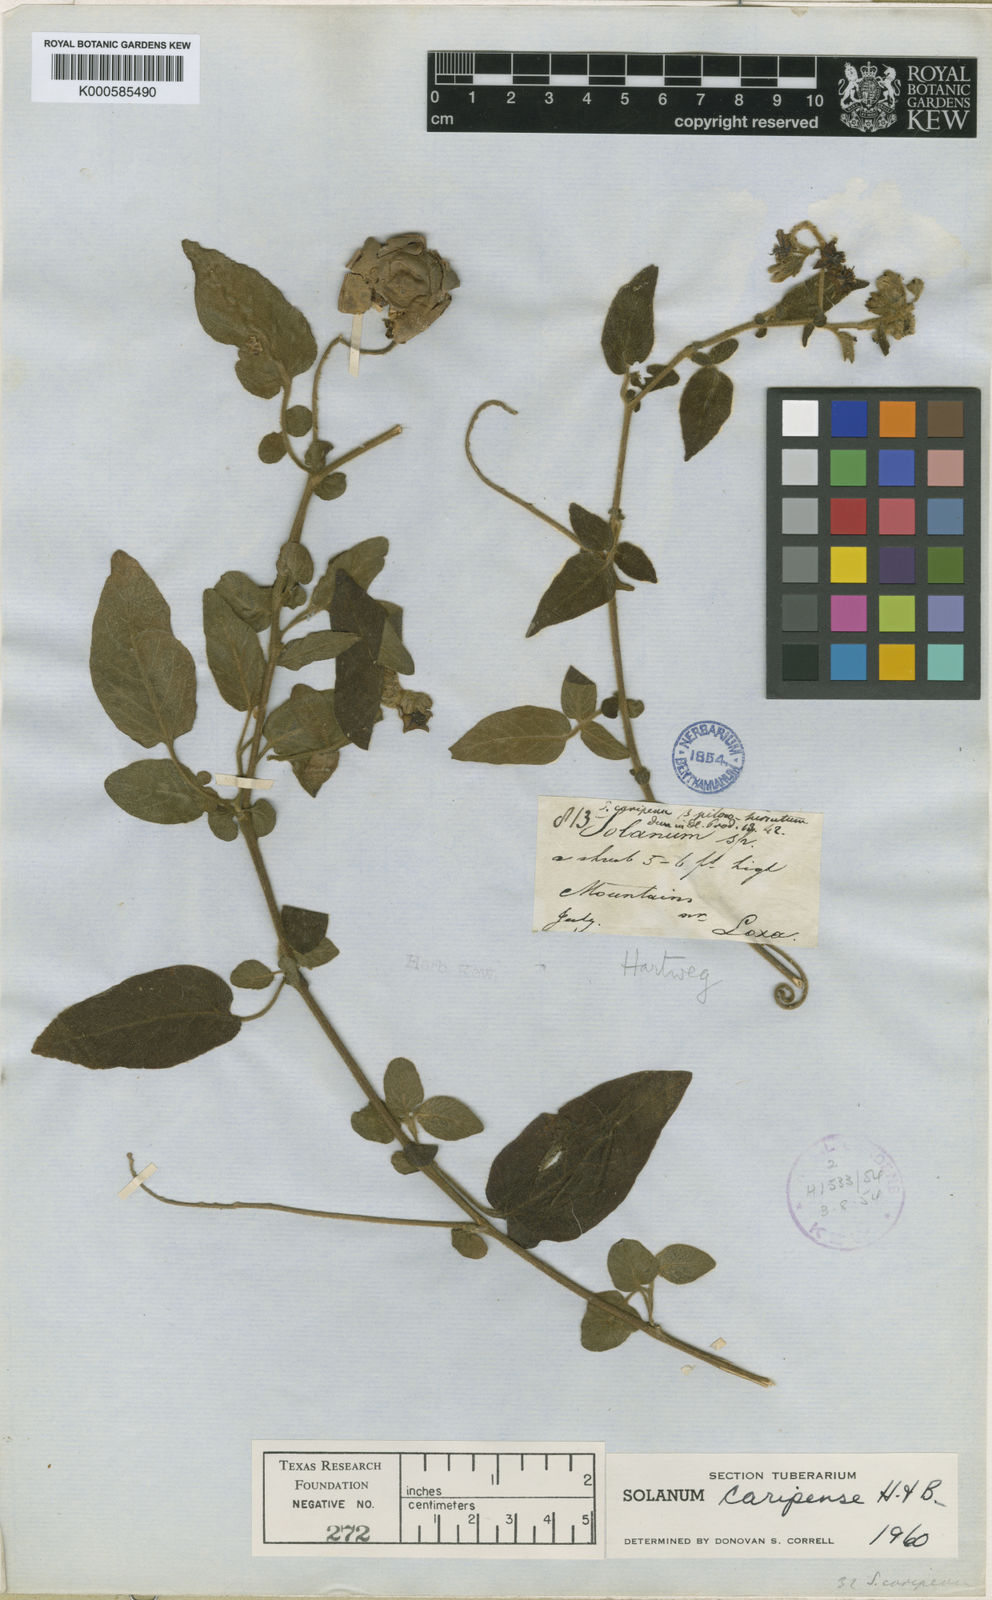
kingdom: Plantae
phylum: Tracheophyta
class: Magnoliopsida
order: Solanales
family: Solanaceae
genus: Solanum
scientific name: Solanum caripense
